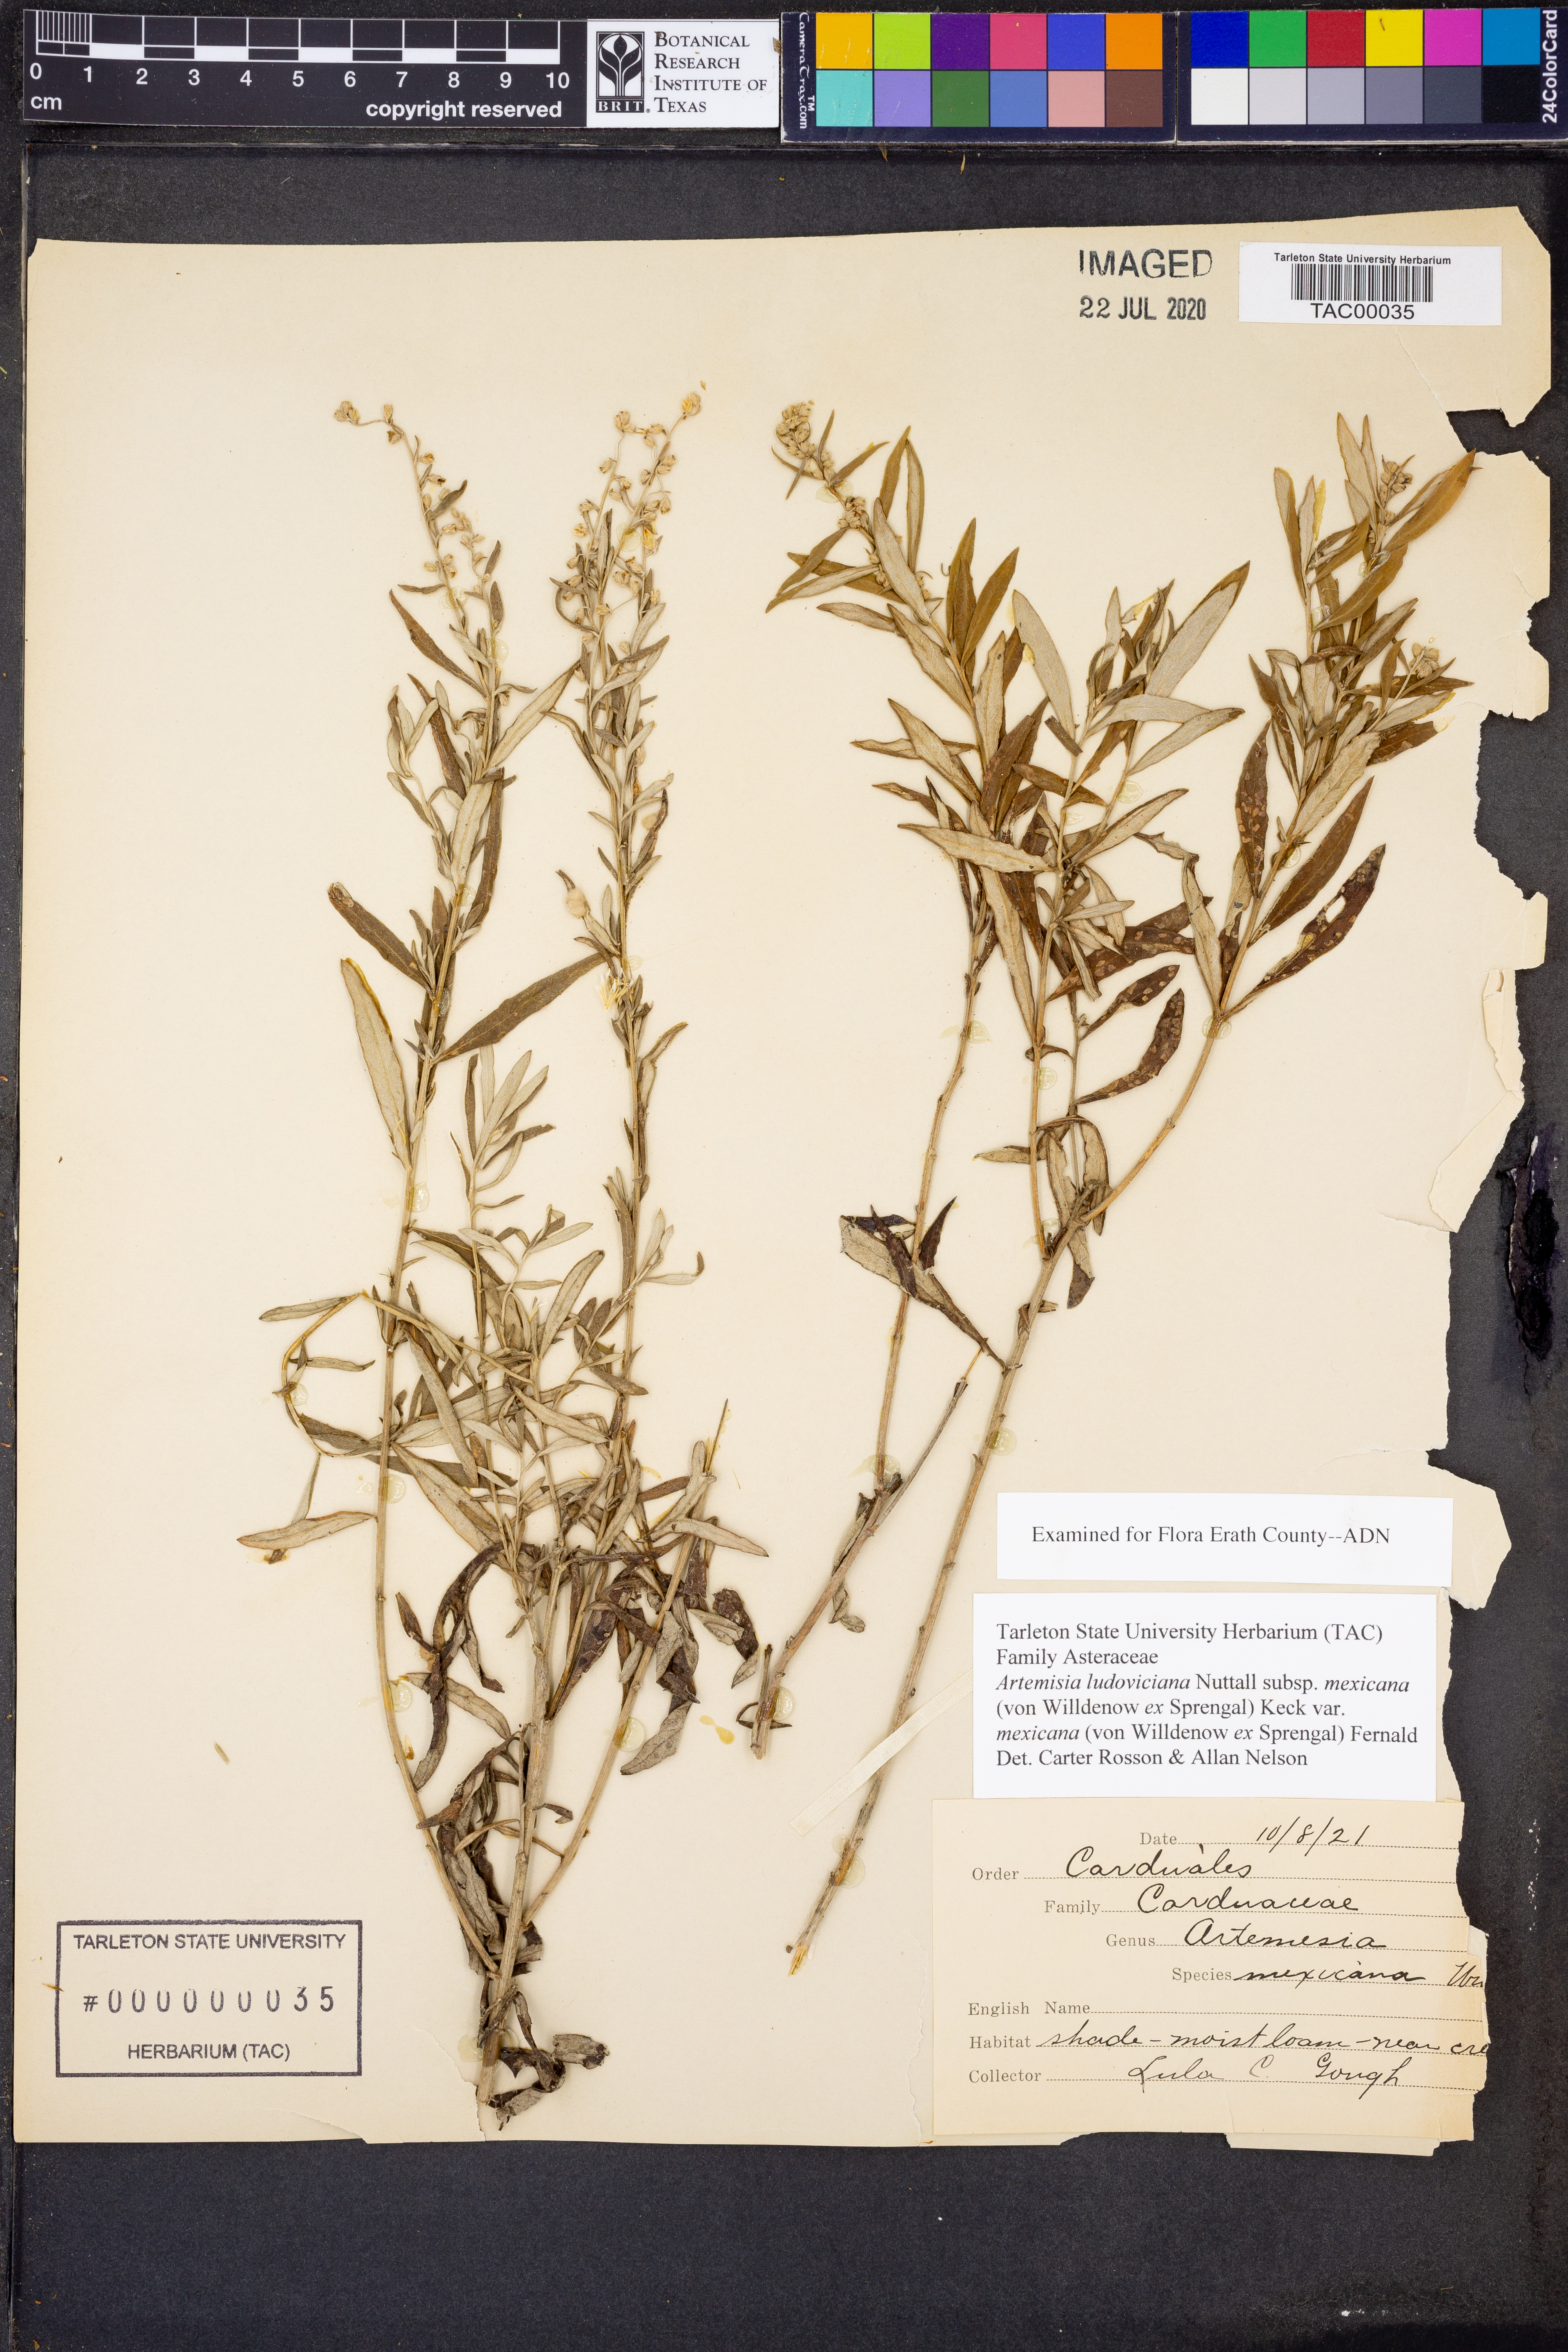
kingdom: Plantae
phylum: Tracheophyta
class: Magnoliopsida
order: Asterales
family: Asteraceae
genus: Artemisia
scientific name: Artemisia ludoviciana
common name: Western mugwort
